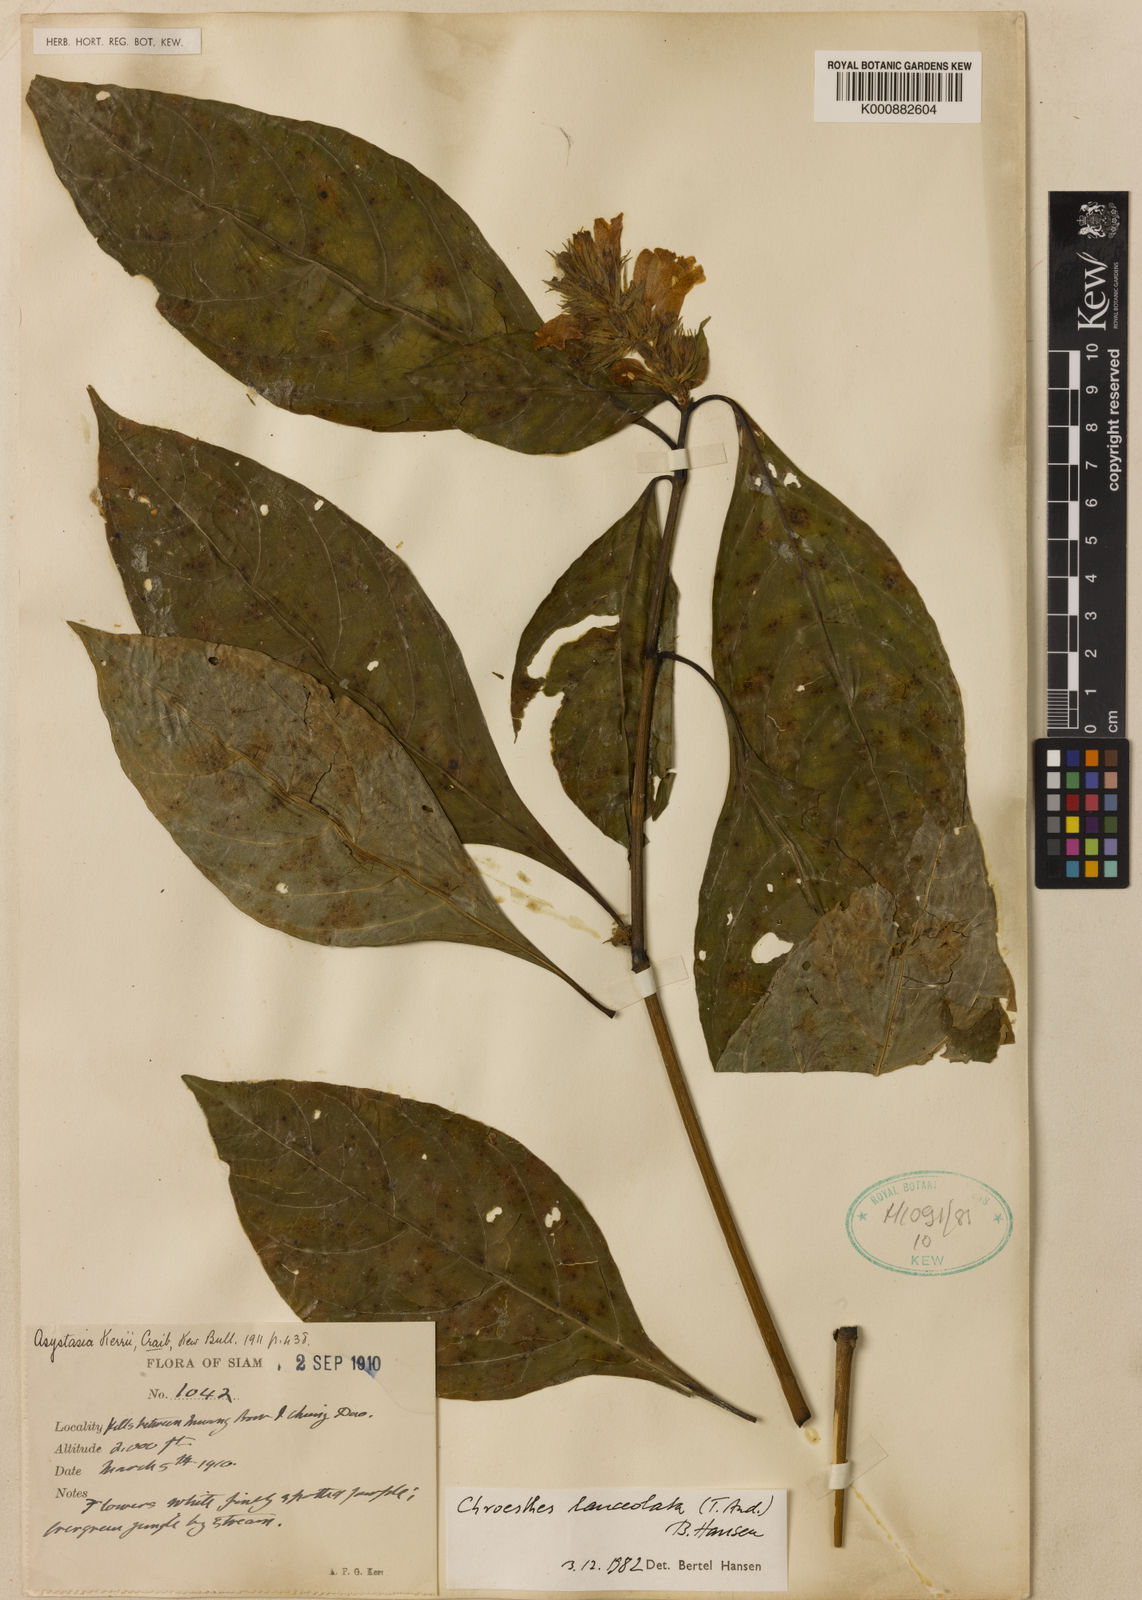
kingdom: Plantae
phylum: Tracheophyta
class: Magnoliopsida
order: Lamiales
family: Acanthaceae
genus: Chroesthes
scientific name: Chroesthes lanceolata
